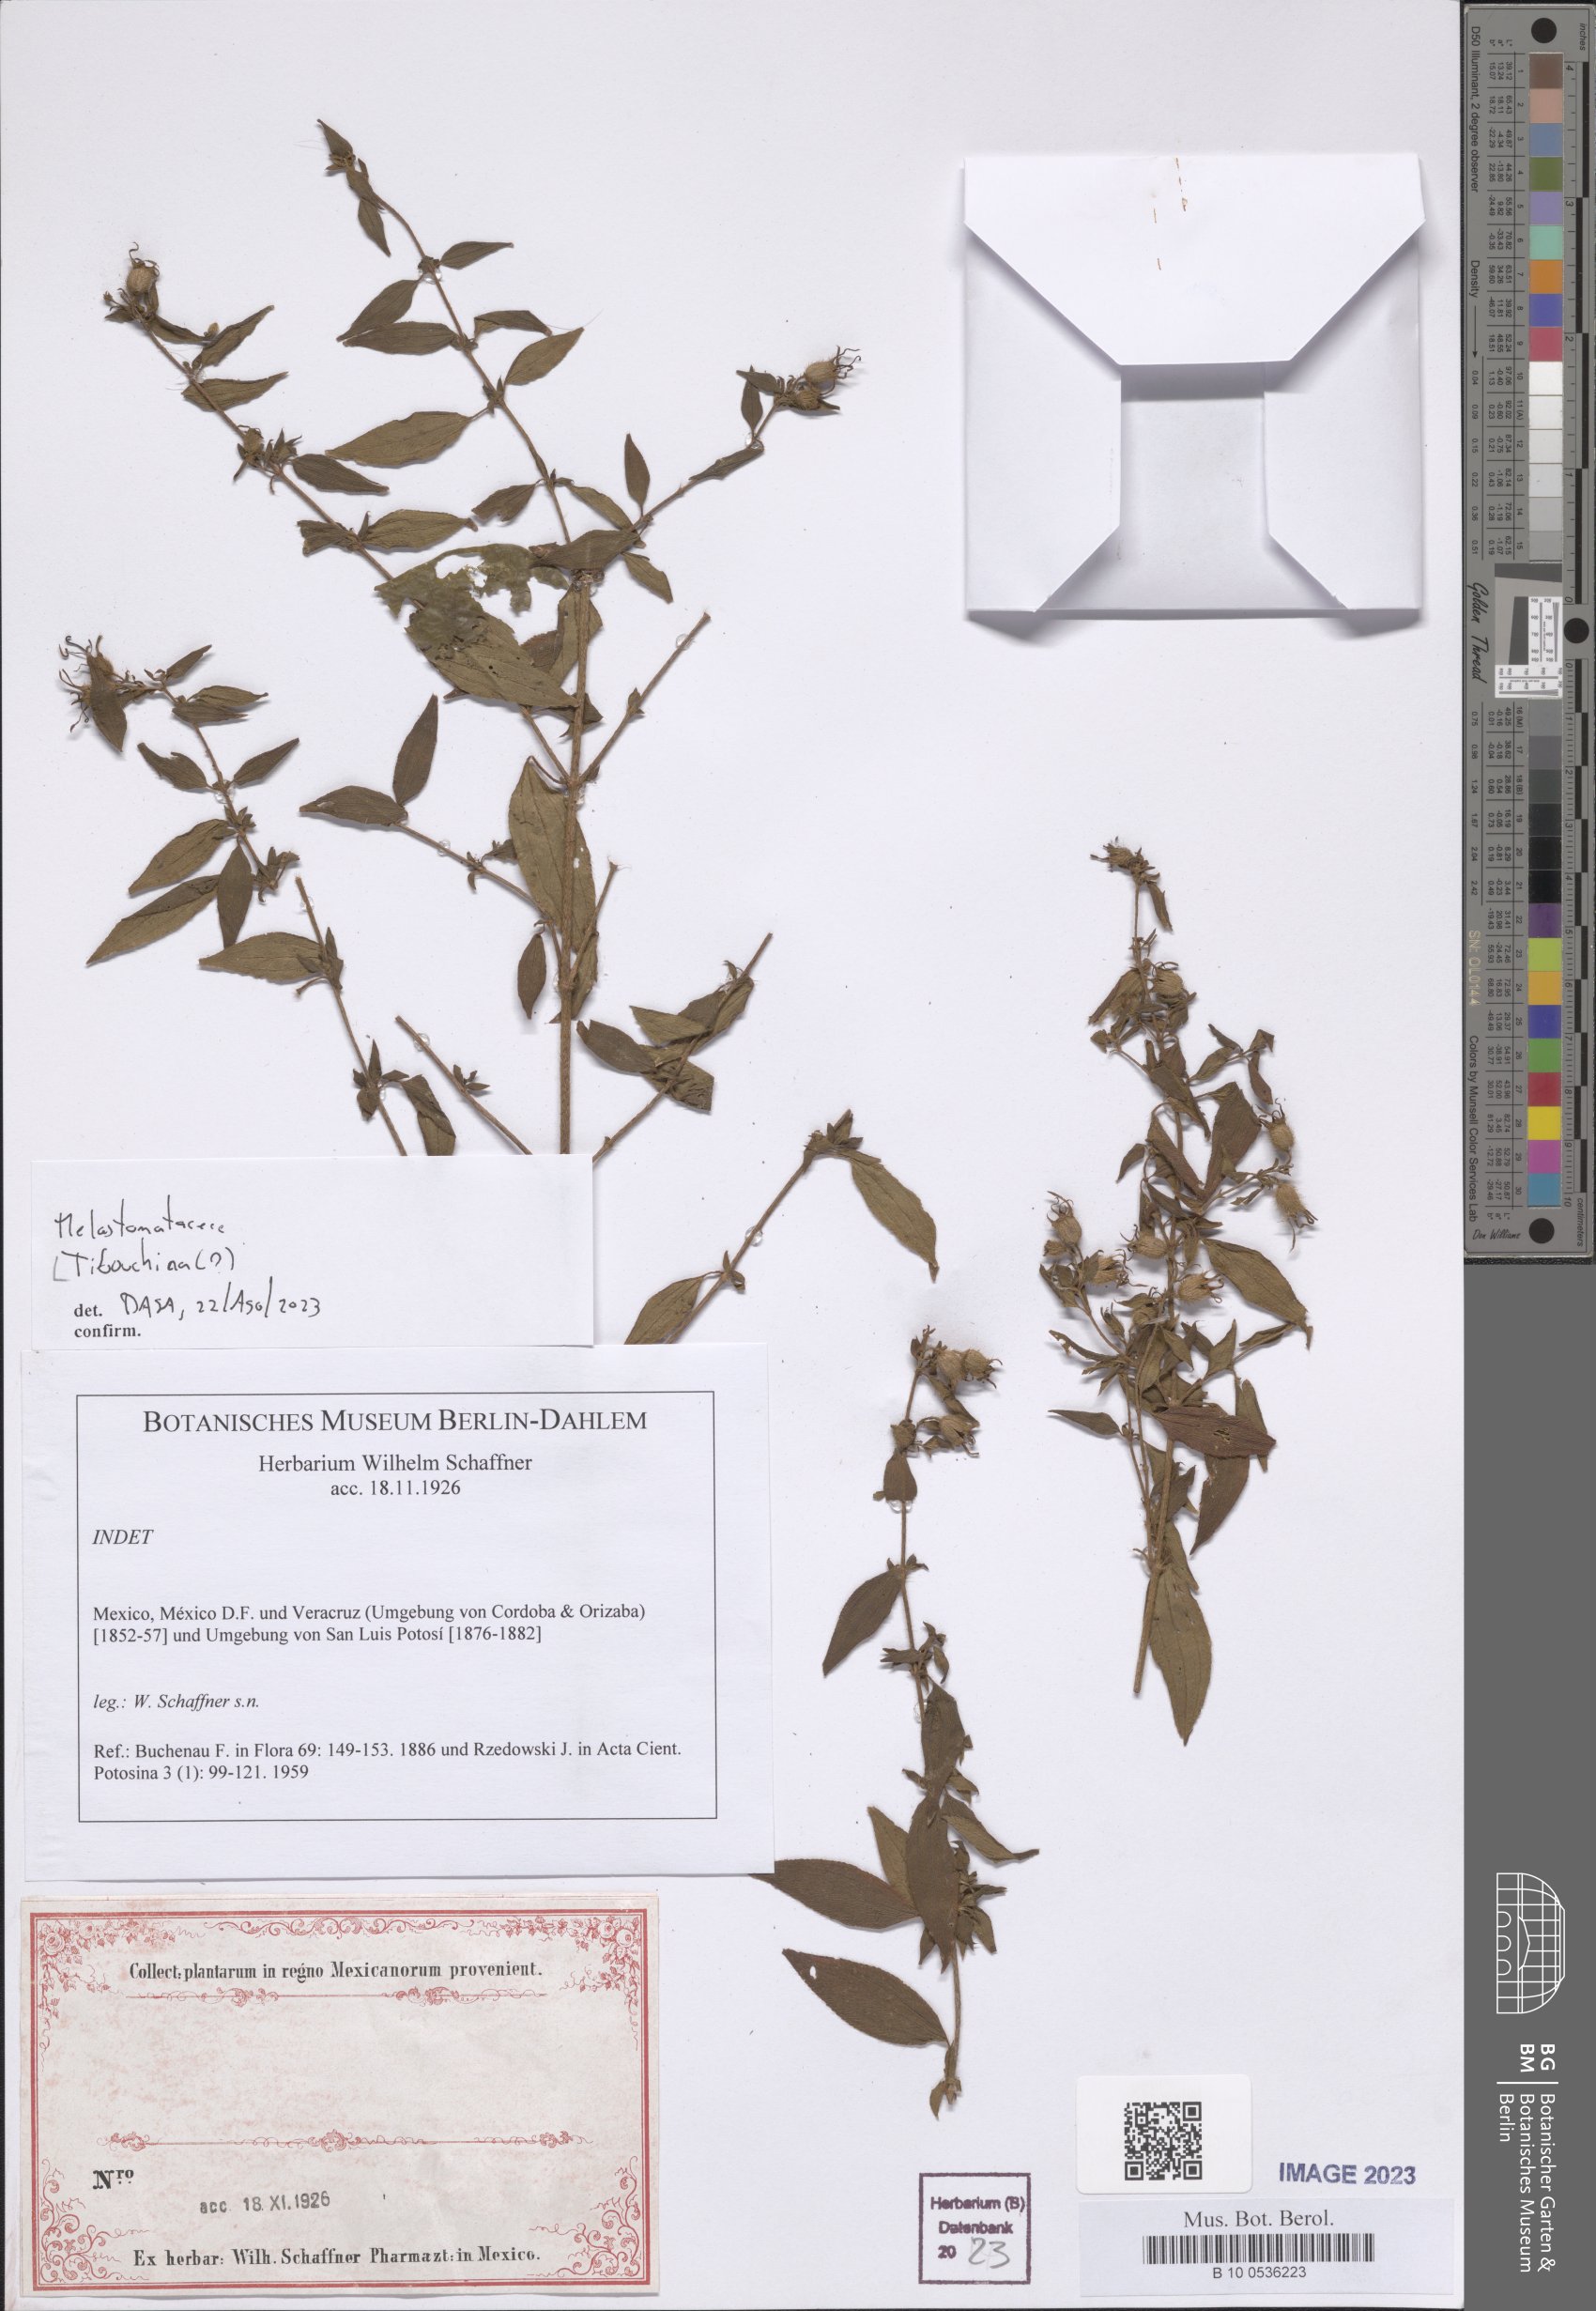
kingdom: Plantae
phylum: Tracheophyta
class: Magnoliopsida
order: Myrtales
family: Melastomataceae
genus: Tibouchina
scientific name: Tibouchina
